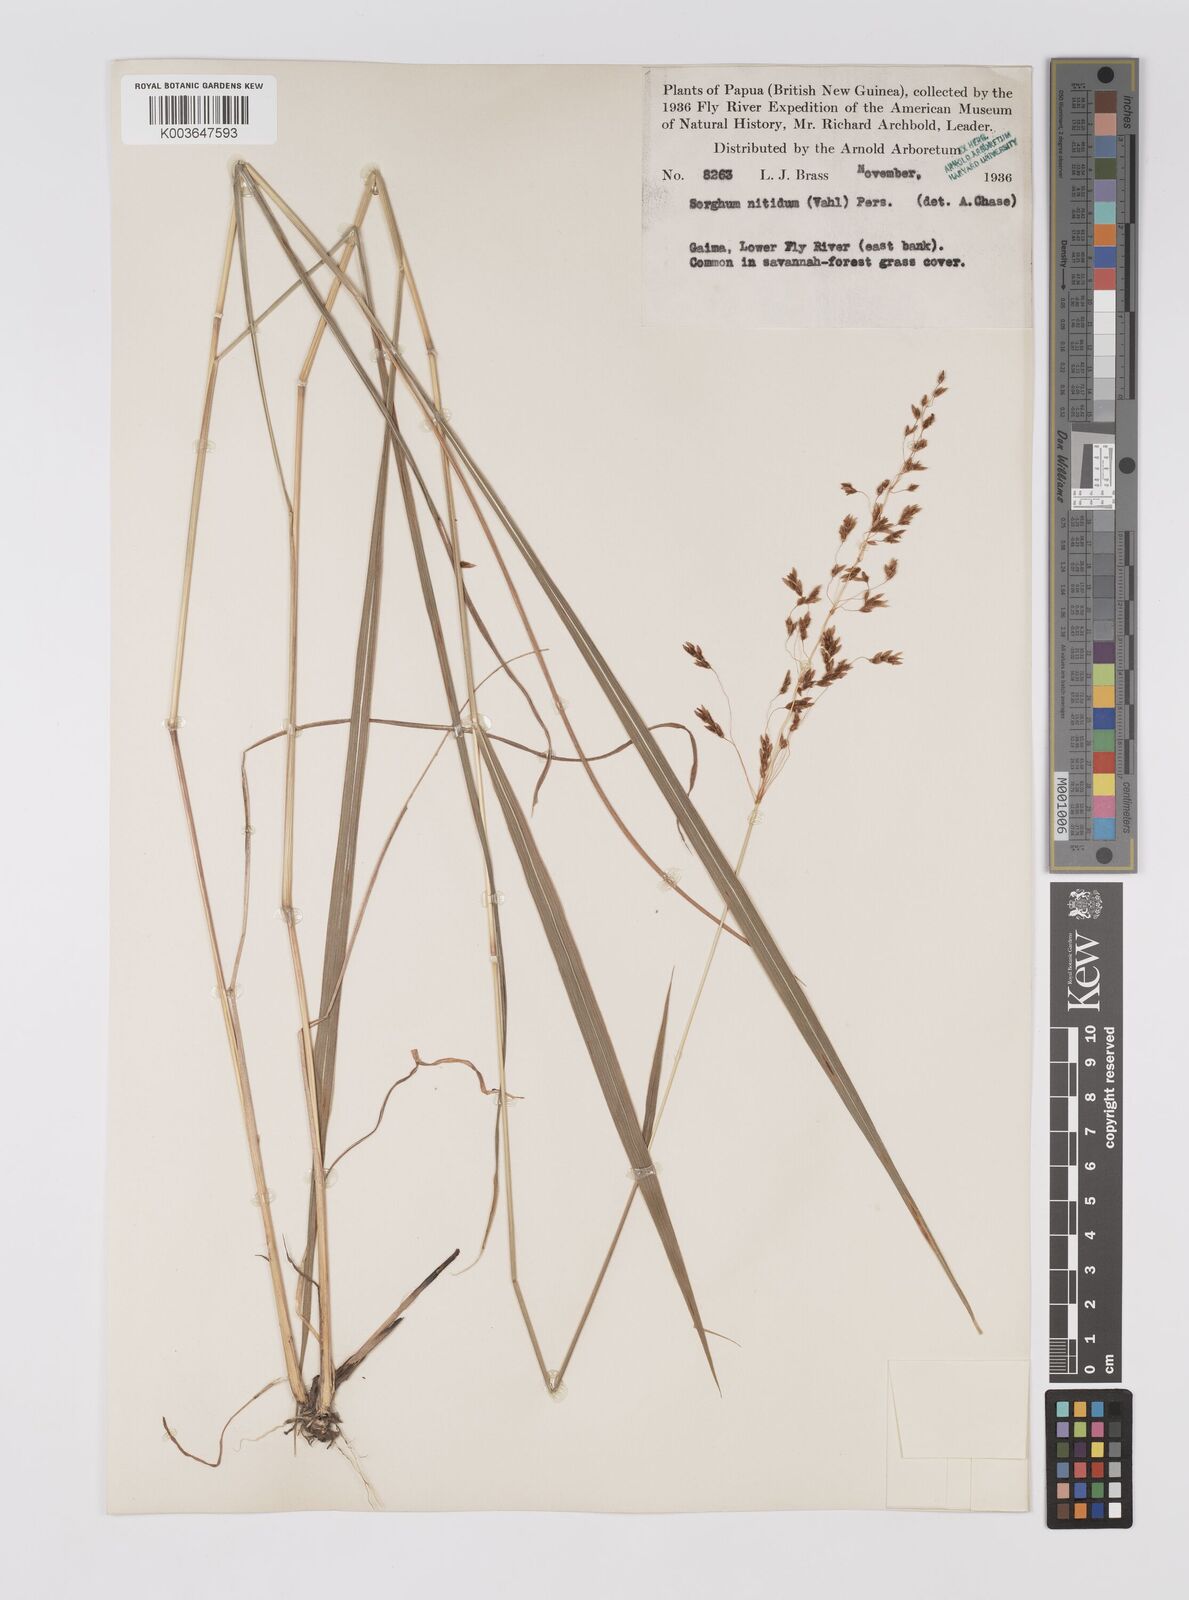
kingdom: Plantae
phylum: Tracheophyta
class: Liliopsida
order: Poales
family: Poaceae
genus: Sorghum
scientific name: Sorghum nitidum
